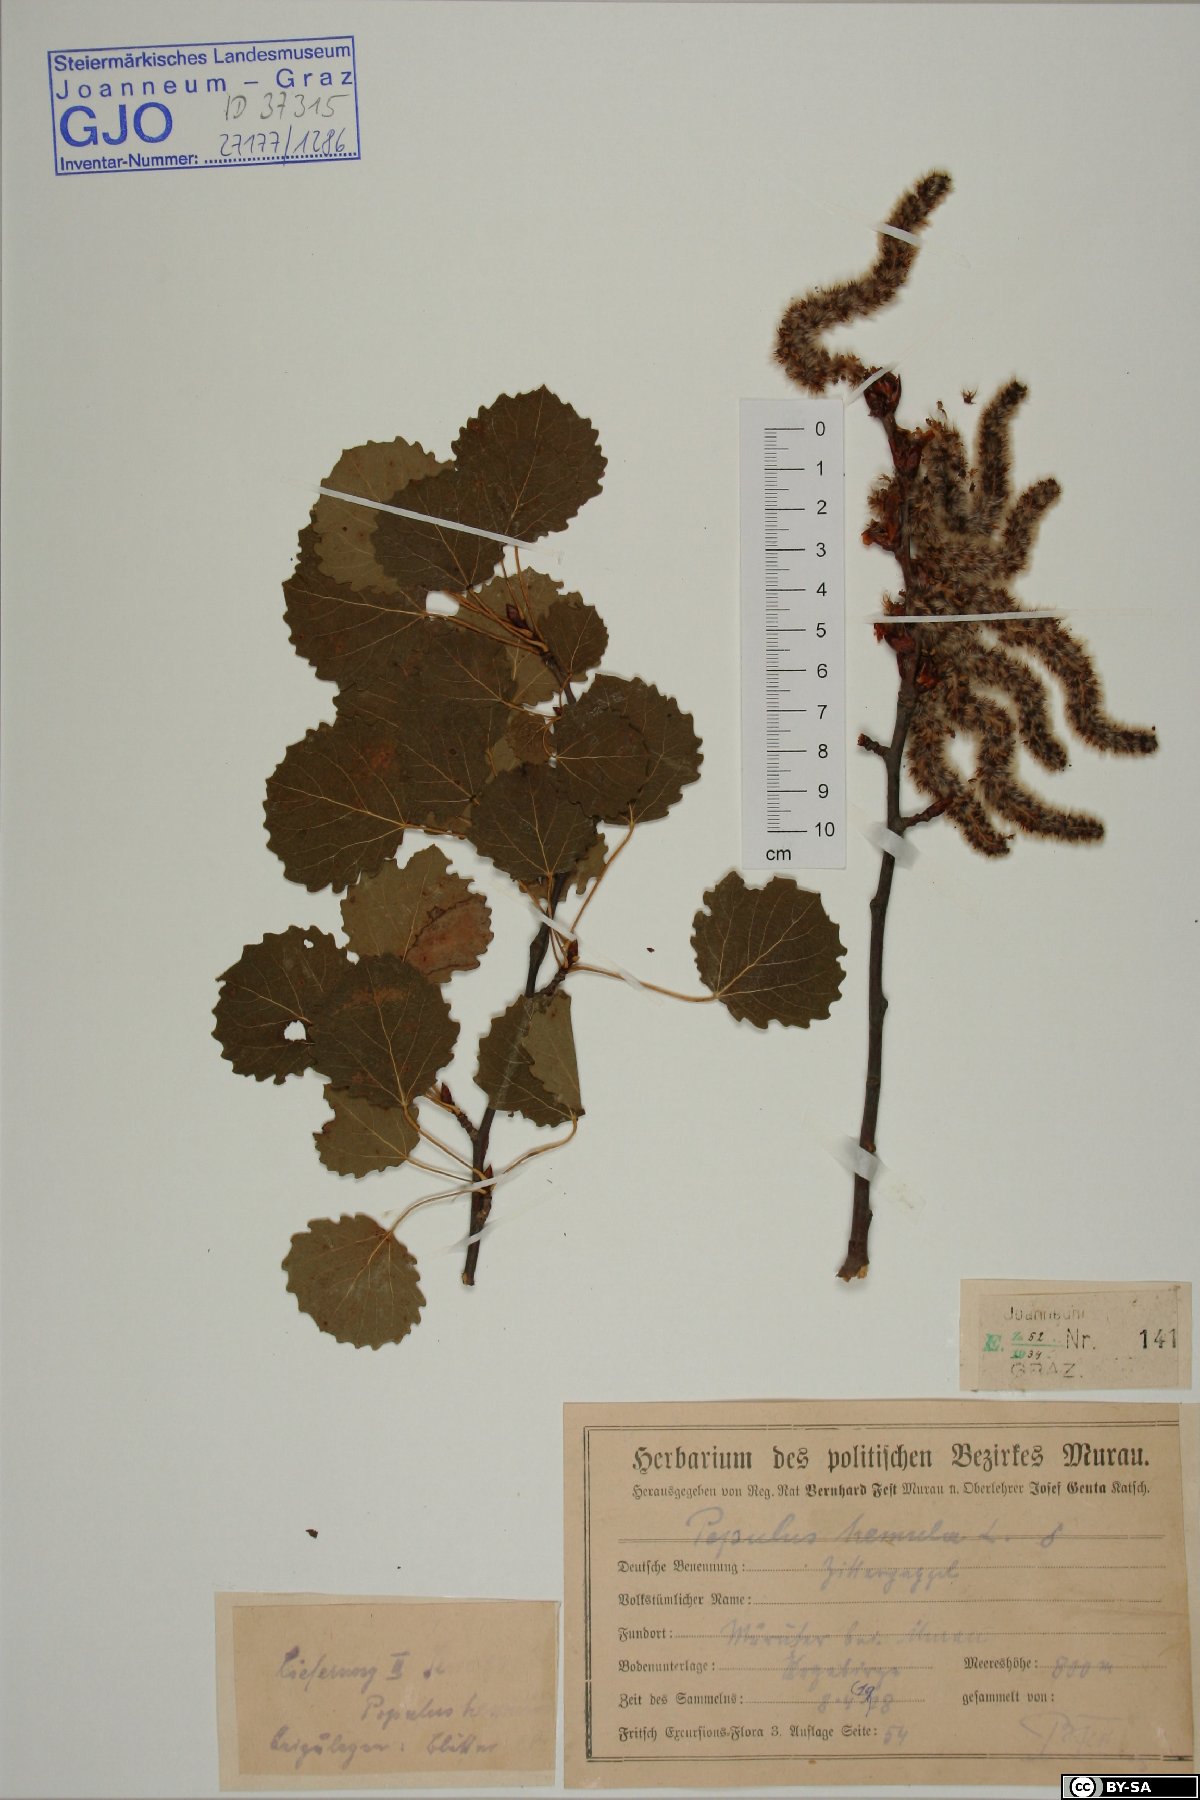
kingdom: Plantae
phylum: Tracheophyta
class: Magnoliopsida
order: Malpighiales
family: Salicaceae
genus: Populus
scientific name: Populus tremula
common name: European aspen
